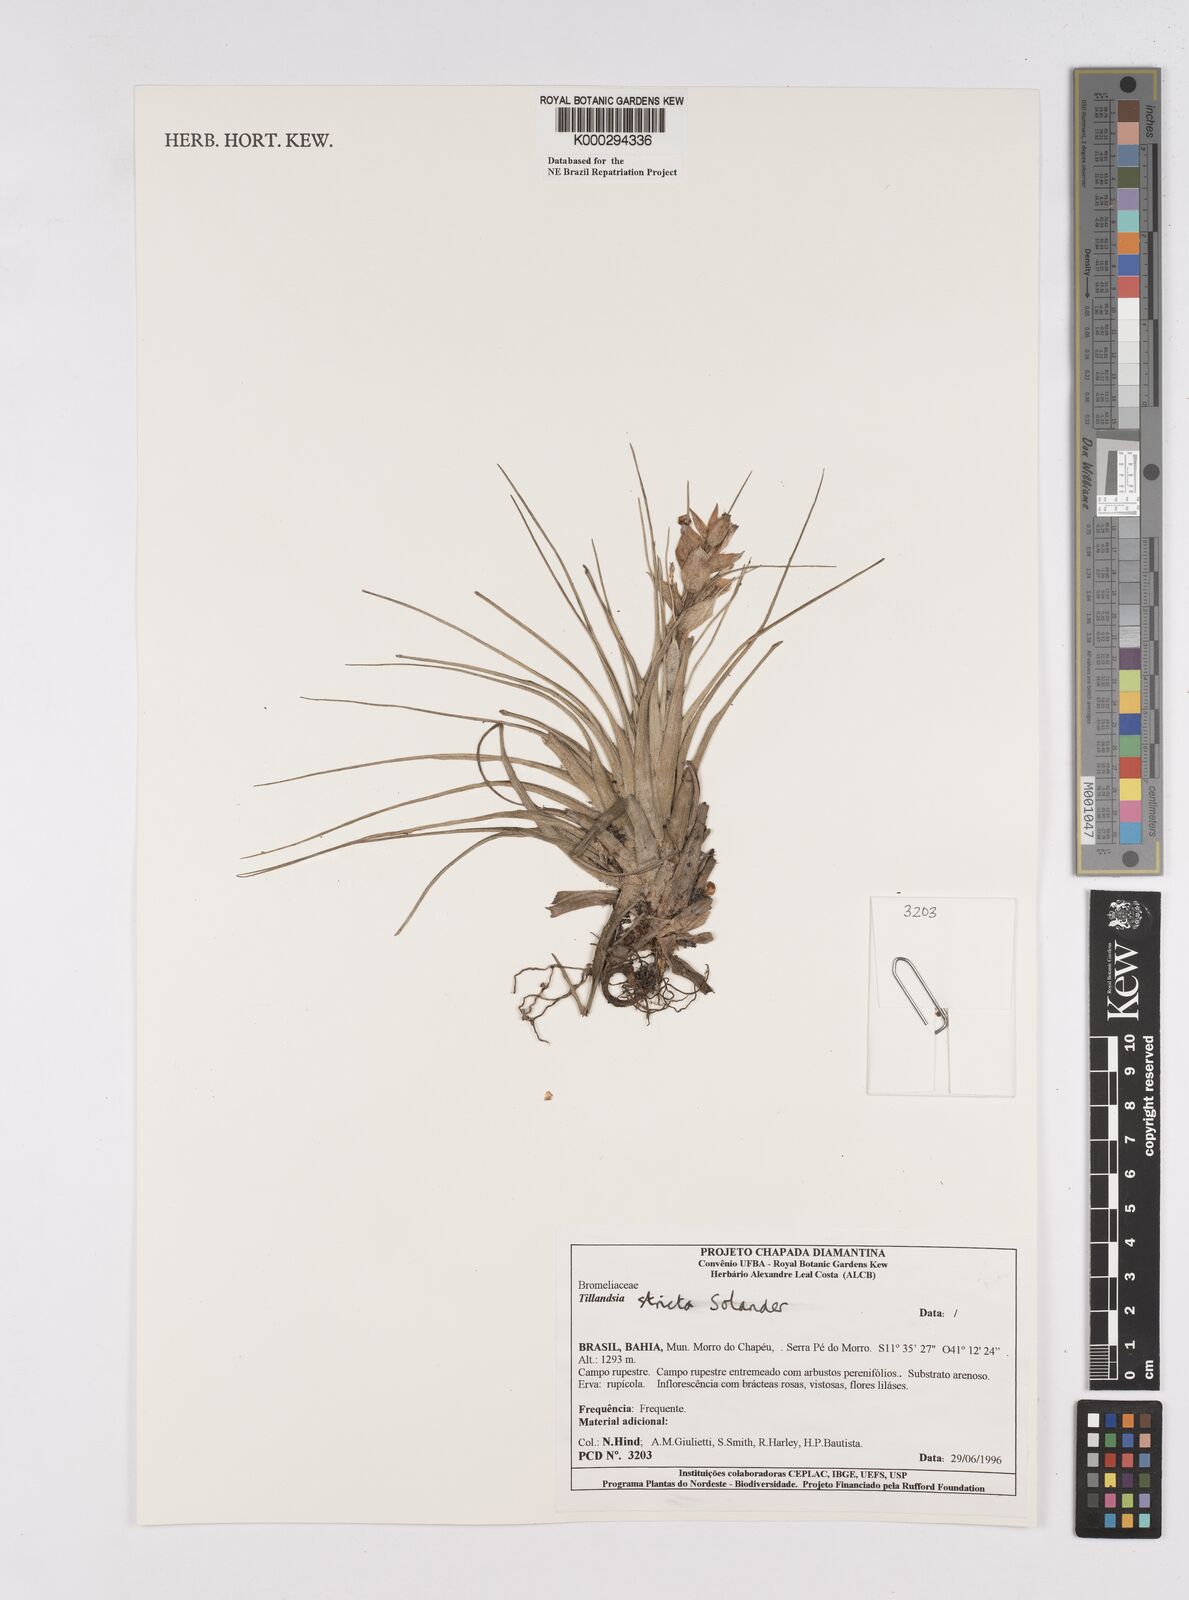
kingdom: Plantae
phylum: Tracheophyta
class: Liliopsida
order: Poales
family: Bromeliaceae
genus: Tillandsia
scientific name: Tillandsia
